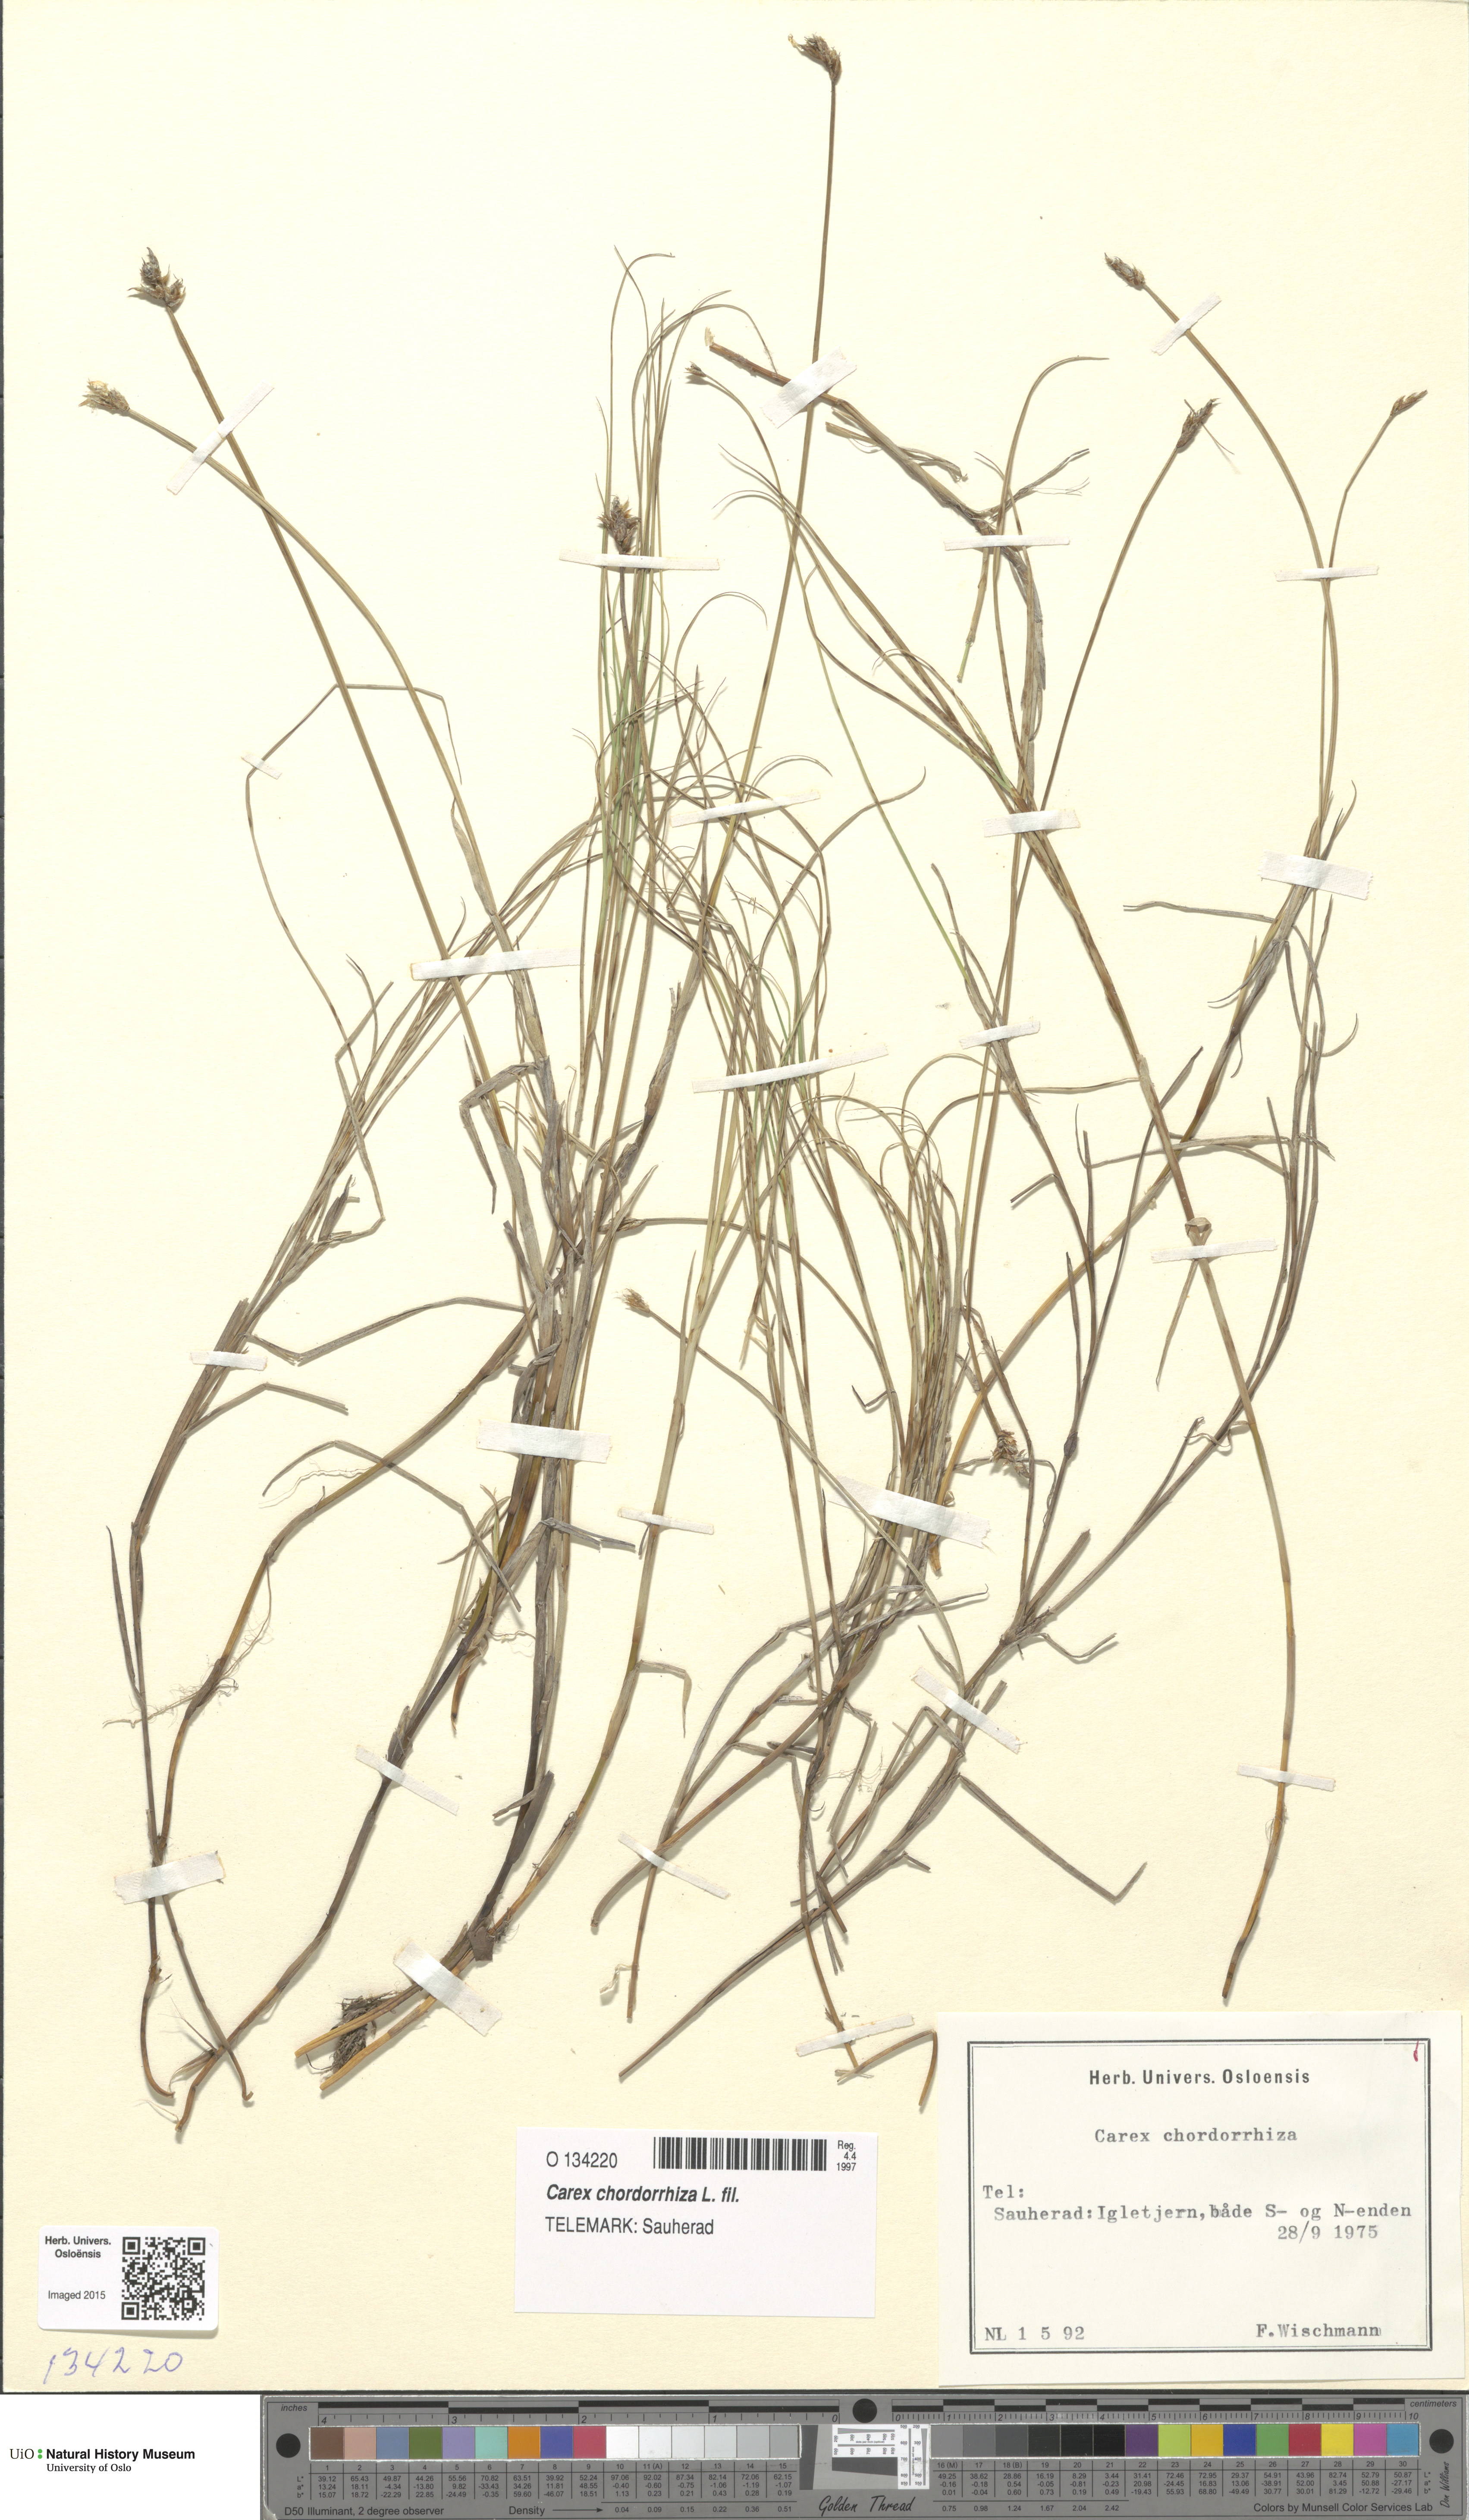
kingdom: Plantae
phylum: Tracheophyta
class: Liliopsida
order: Poales
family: Cyperaceae
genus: Carex
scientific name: Carex chordorrhiza
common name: String sedge
